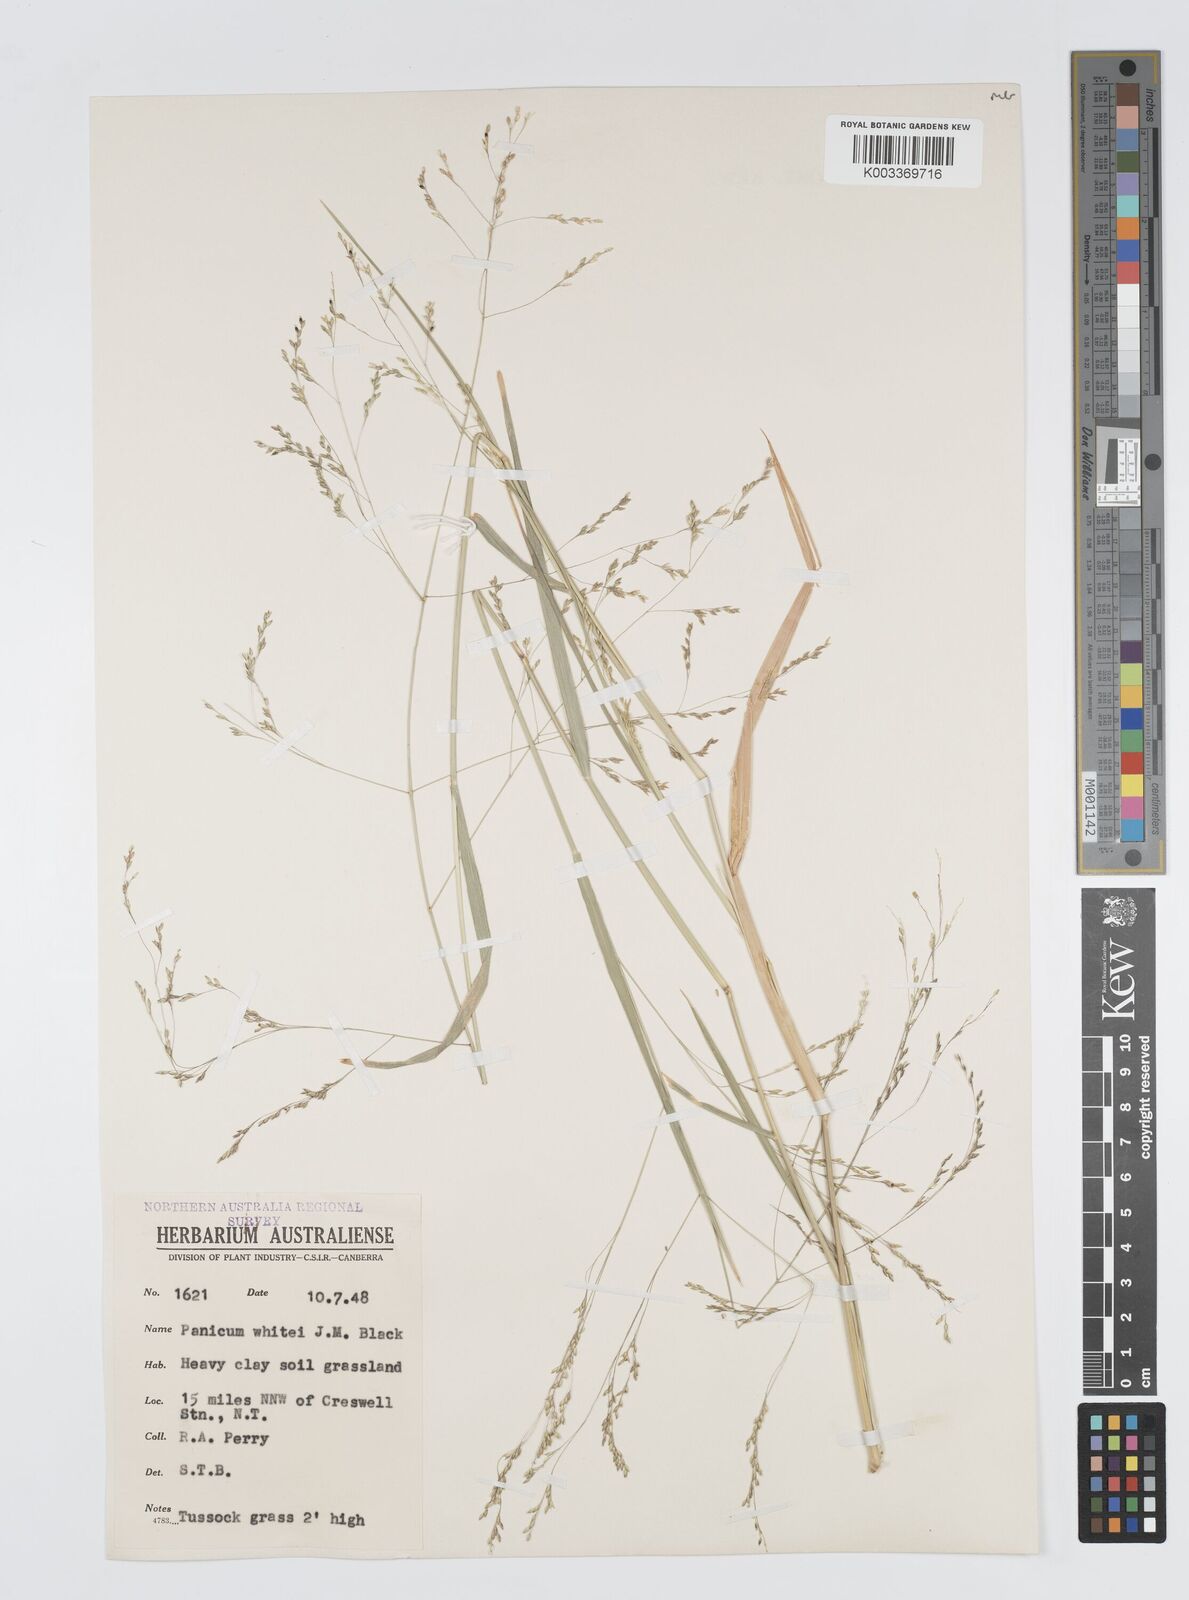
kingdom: Plantae
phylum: Tracheophyta
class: Liliopsida
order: Poales
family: Poaceae
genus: Panicum
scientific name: Panicum laevinode
